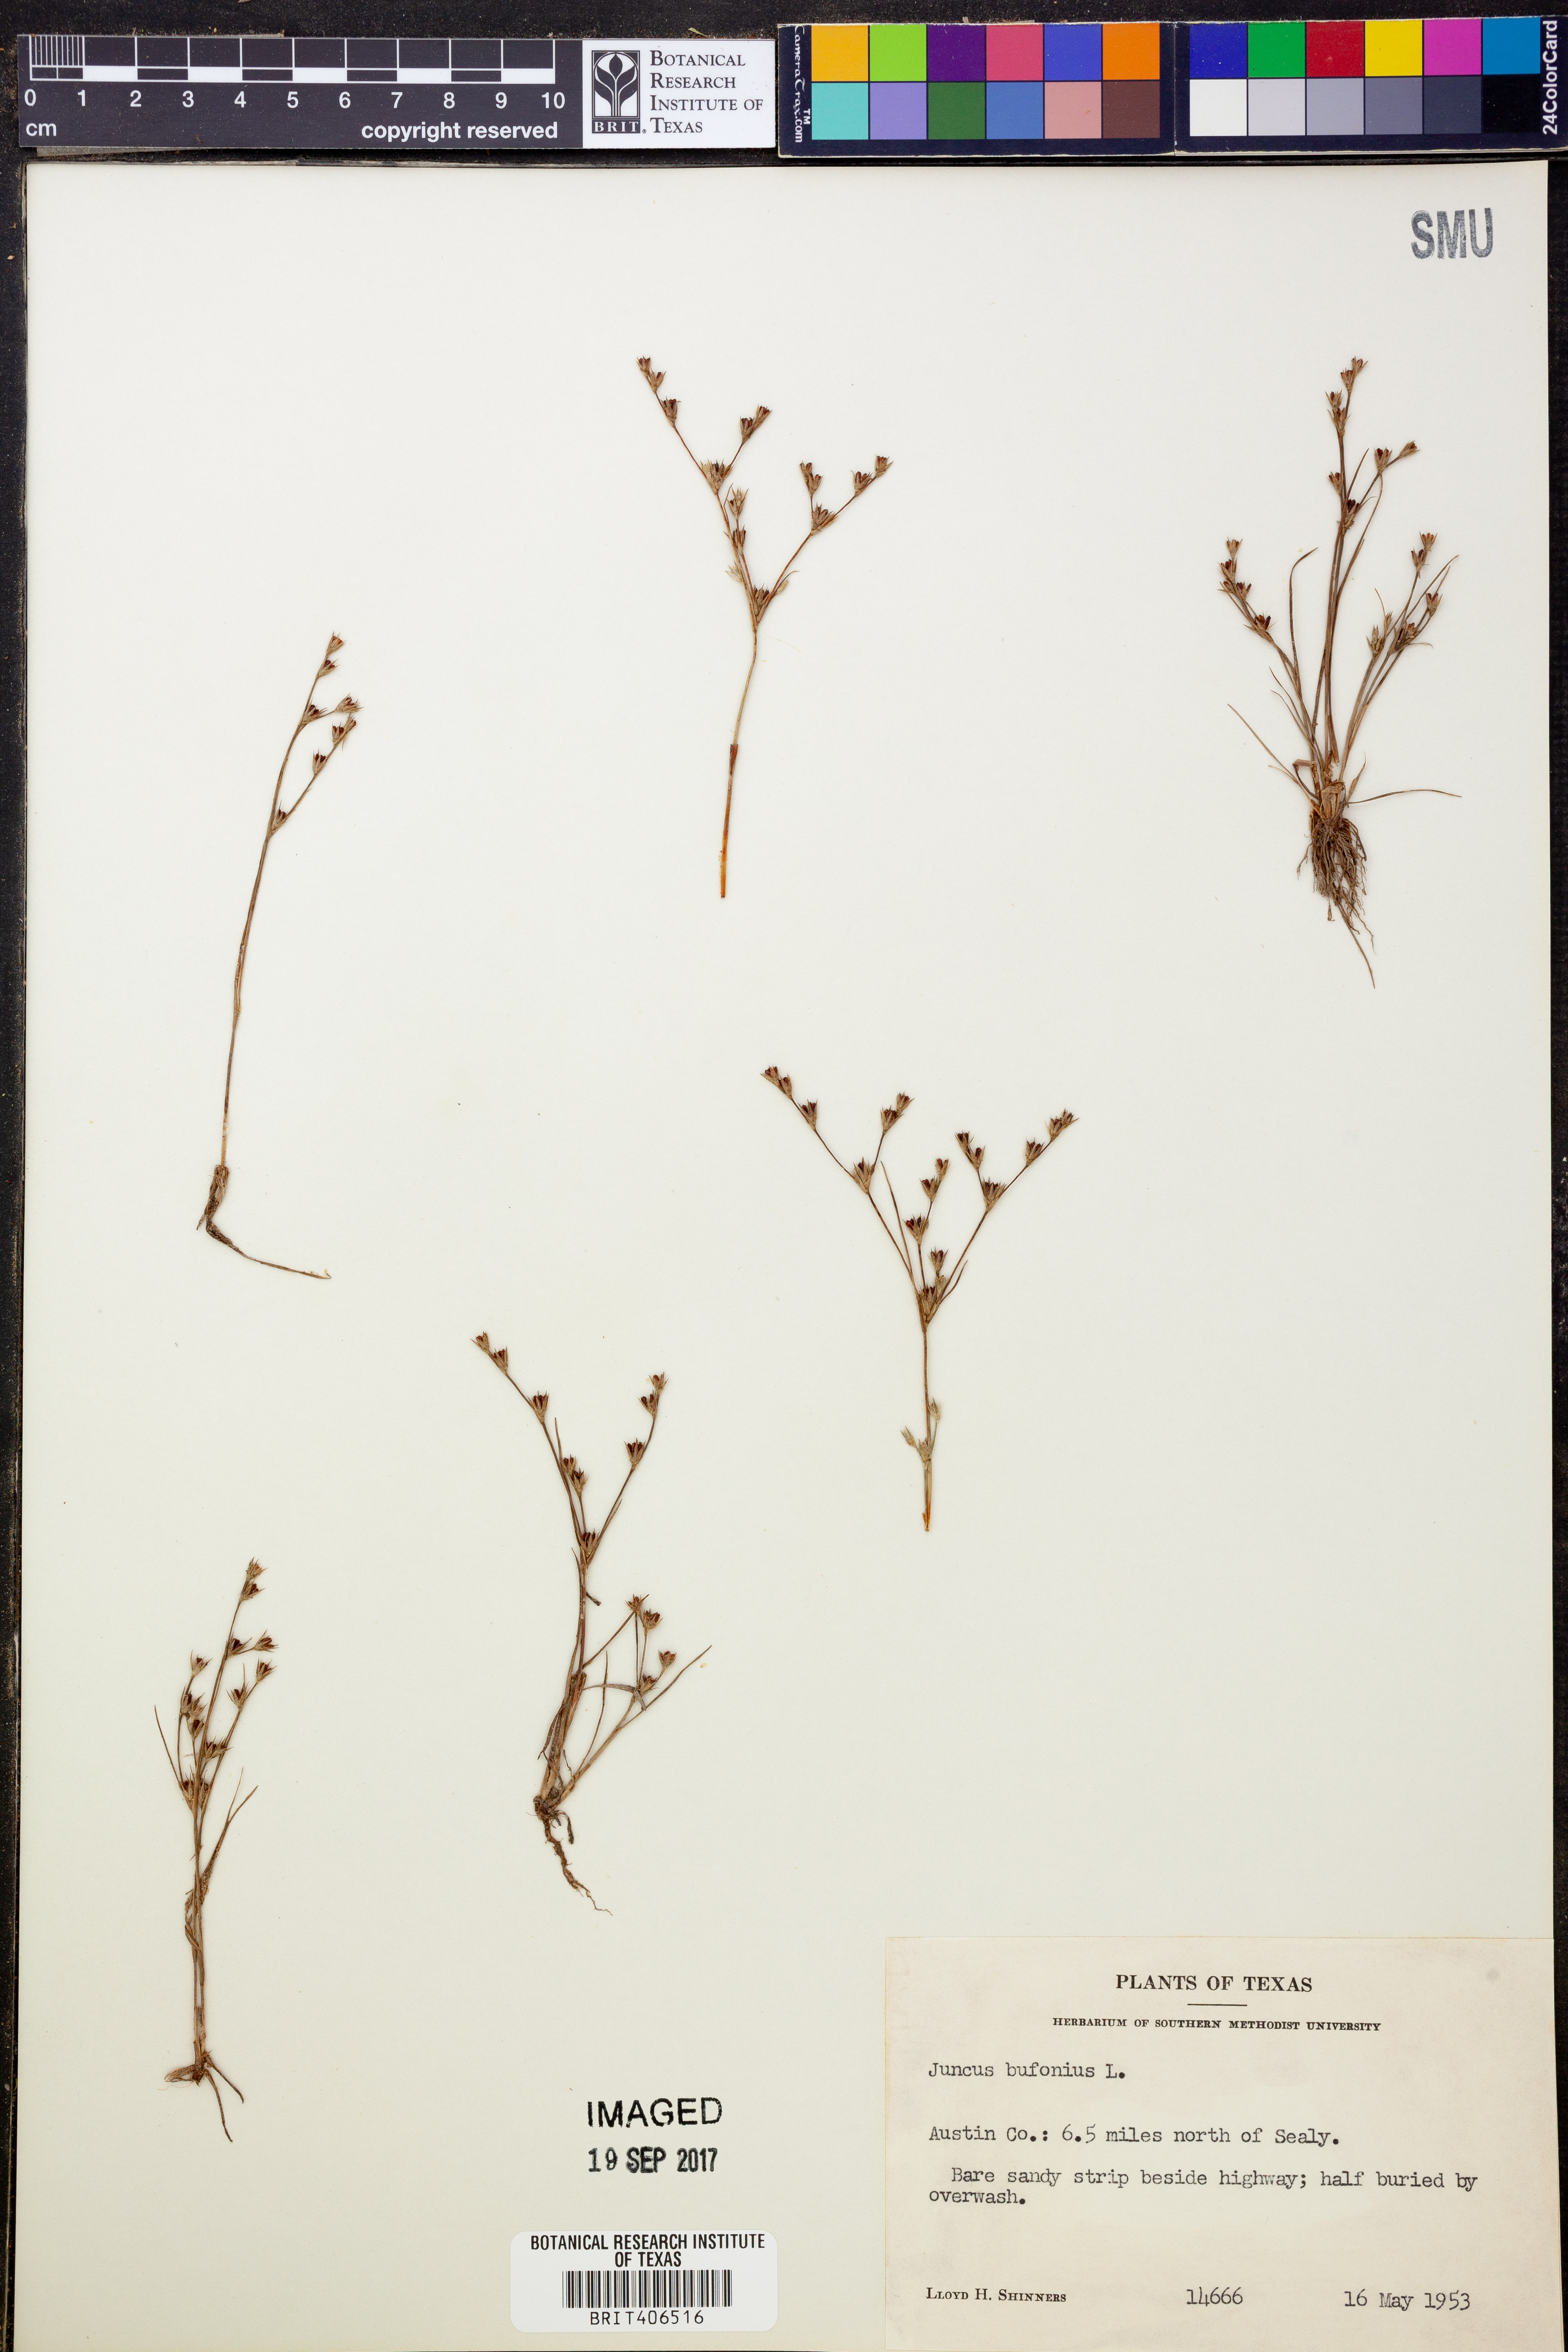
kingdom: Plantae
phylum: Tracheophyta
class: Liliopsida
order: Poales
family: Juncaceae
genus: Juncus
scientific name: Juncus bufonius
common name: Toad rush
